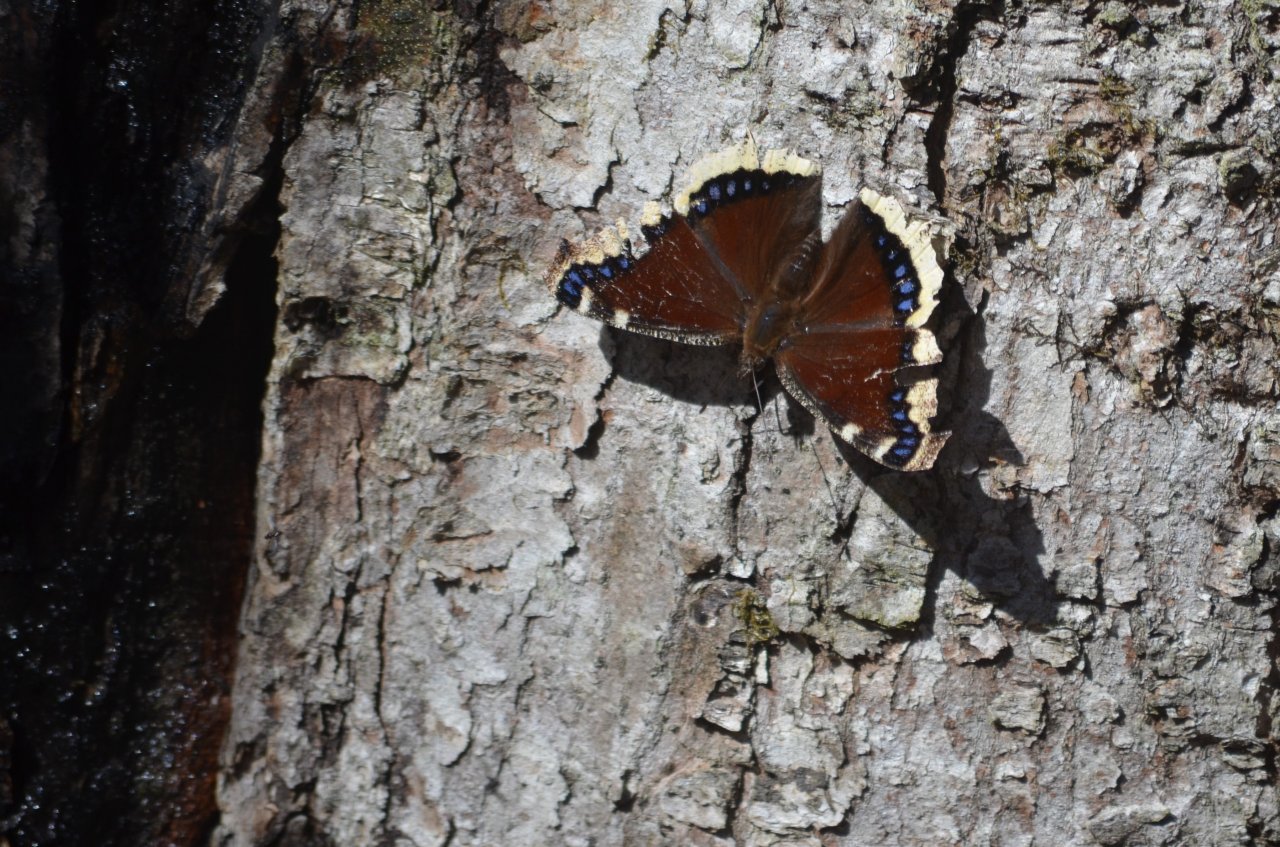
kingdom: Animalia
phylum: Arthropoda
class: Insecta
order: Lepidoptera
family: Nymphalidae
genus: Nymphalis
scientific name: Nymphalis antiopa
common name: Mourning Cloak
